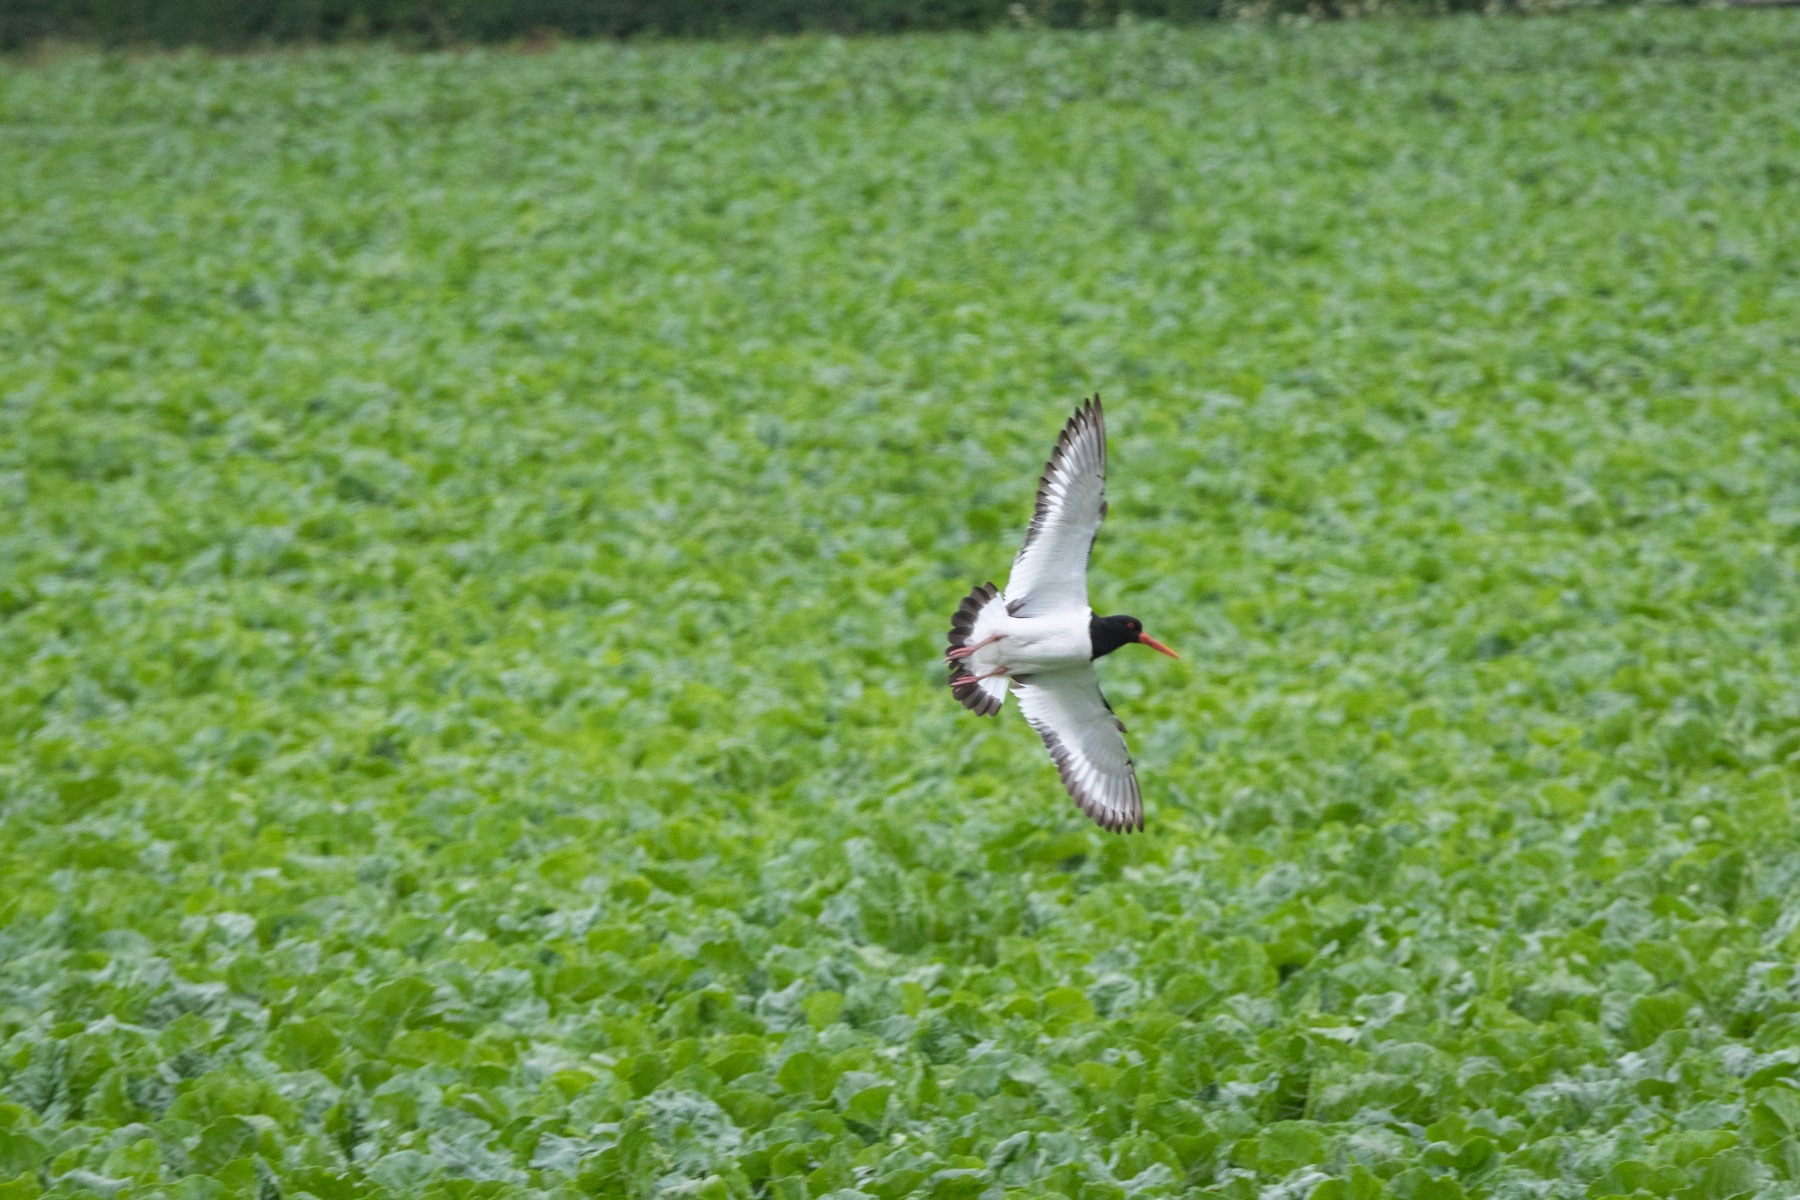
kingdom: Animalia
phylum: Chordata
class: Aves
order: Charadriiformes
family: Haematopodidae
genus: Haematopus
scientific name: Haematopus ostralegus
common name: Strandskade
